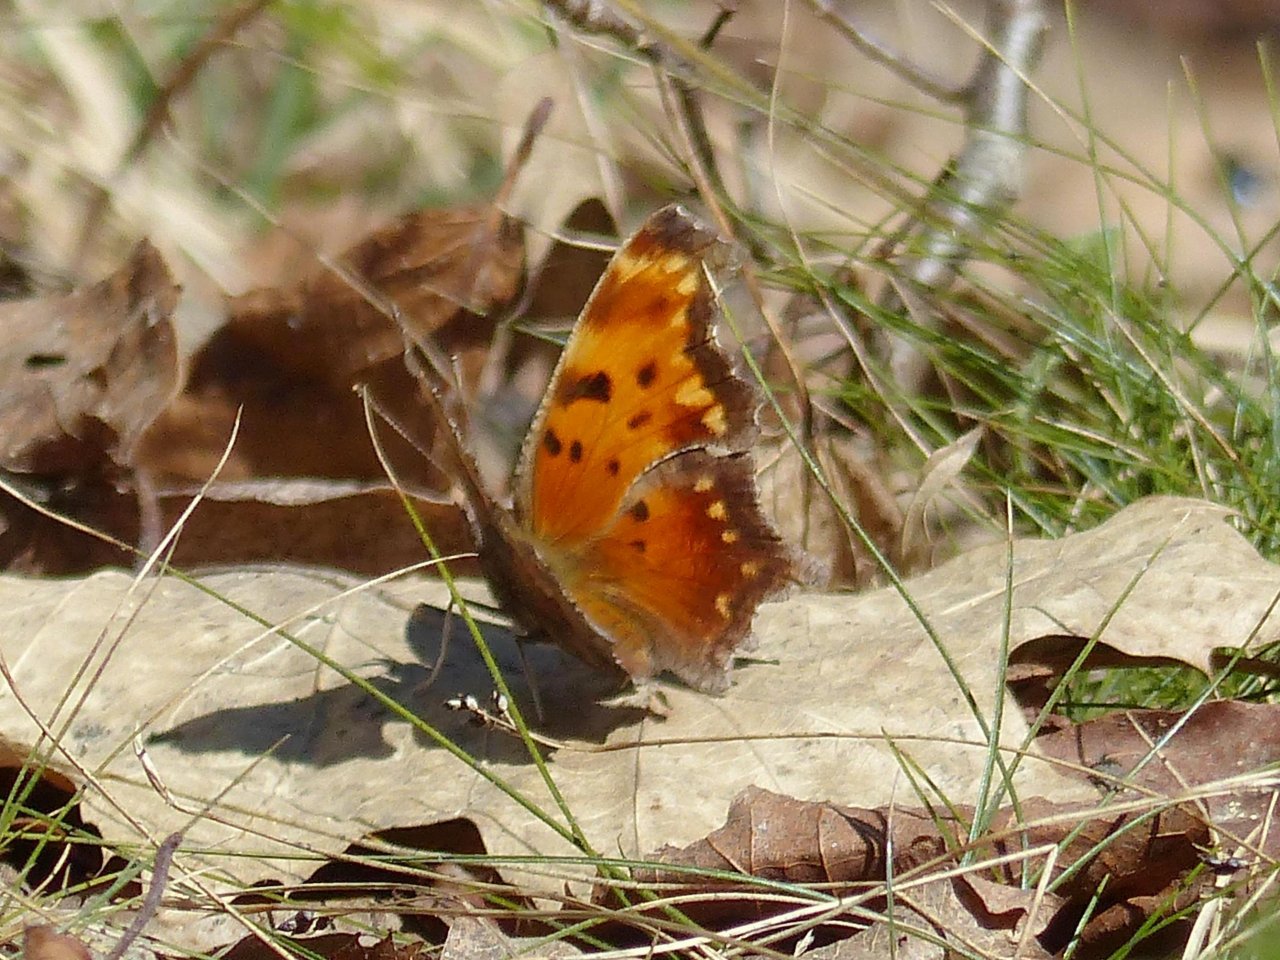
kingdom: Animalia
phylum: Arthropoda
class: Insecta
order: Lepidoptera
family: Nymphalidae
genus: Polygonia
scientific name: Polygonia progne
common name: Gray Comma
